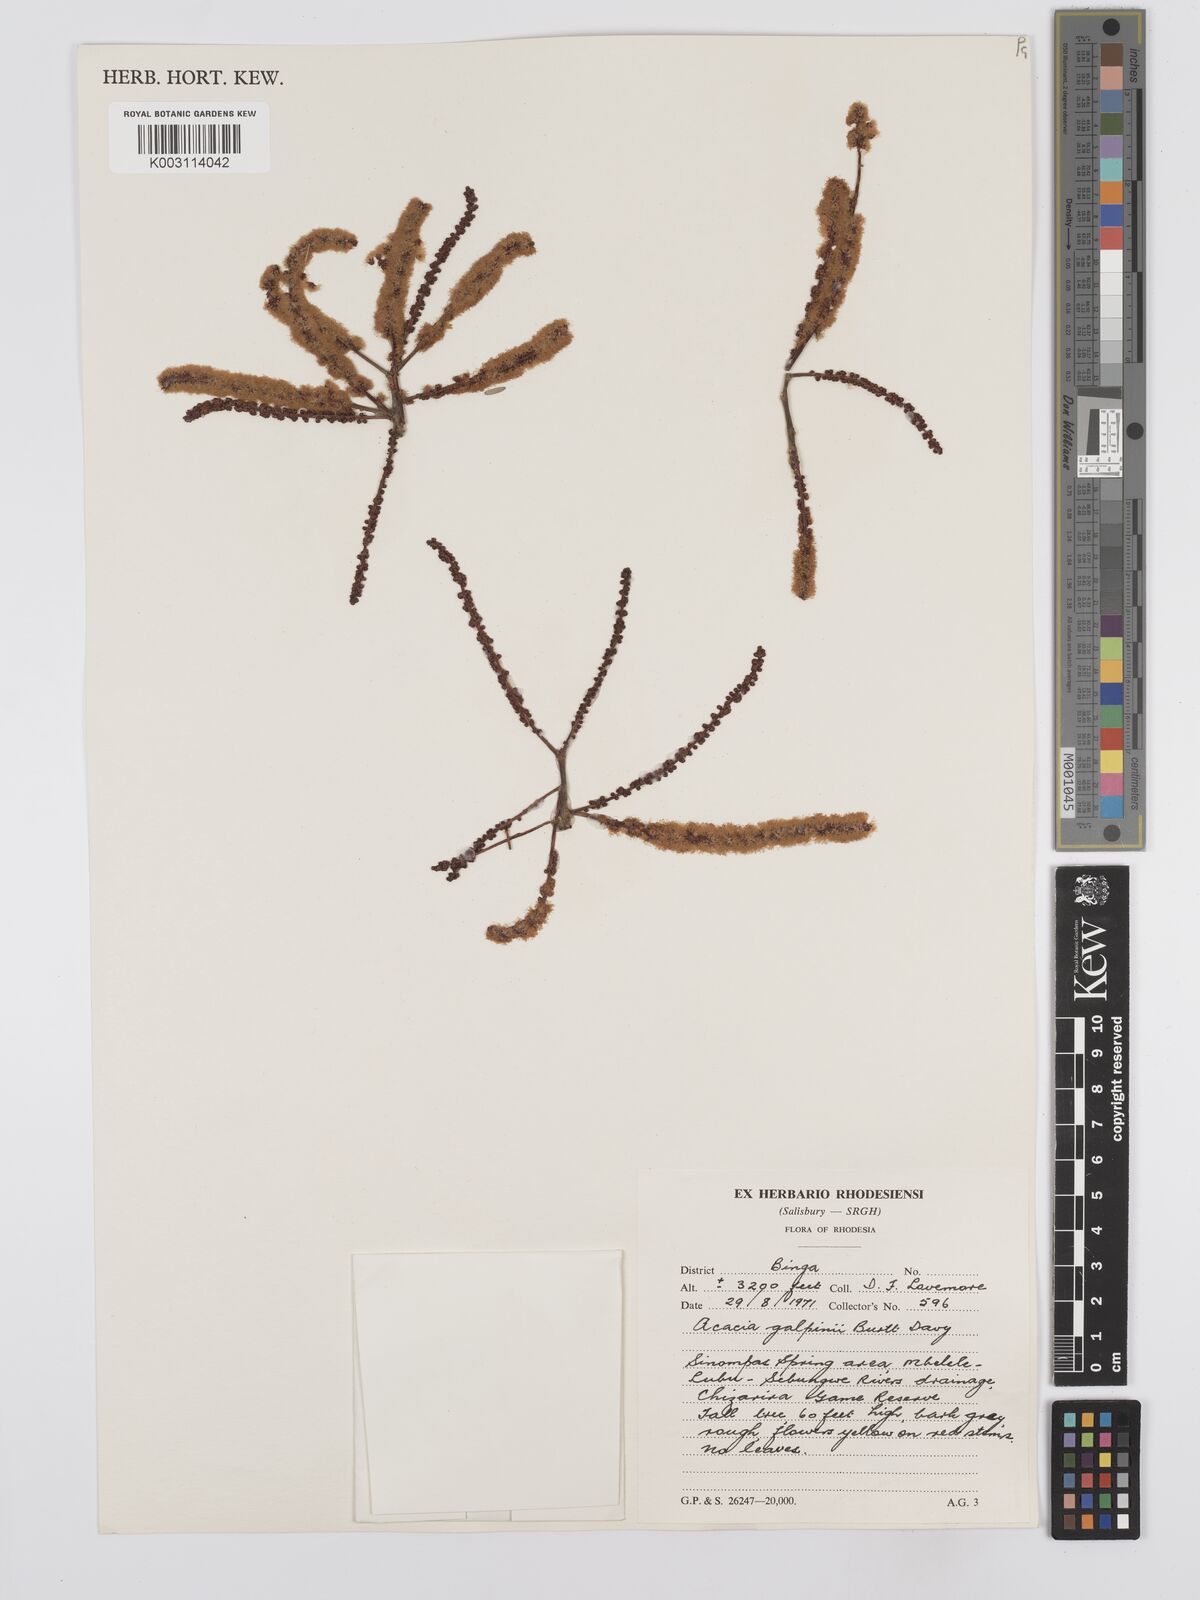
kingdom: Plantae
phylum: Tracheophyta
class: Magnoliopsida
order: Fabales
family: Fabaceae
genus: Senegalia
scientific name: Senegalia galpinii
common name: Monkey-thorn
